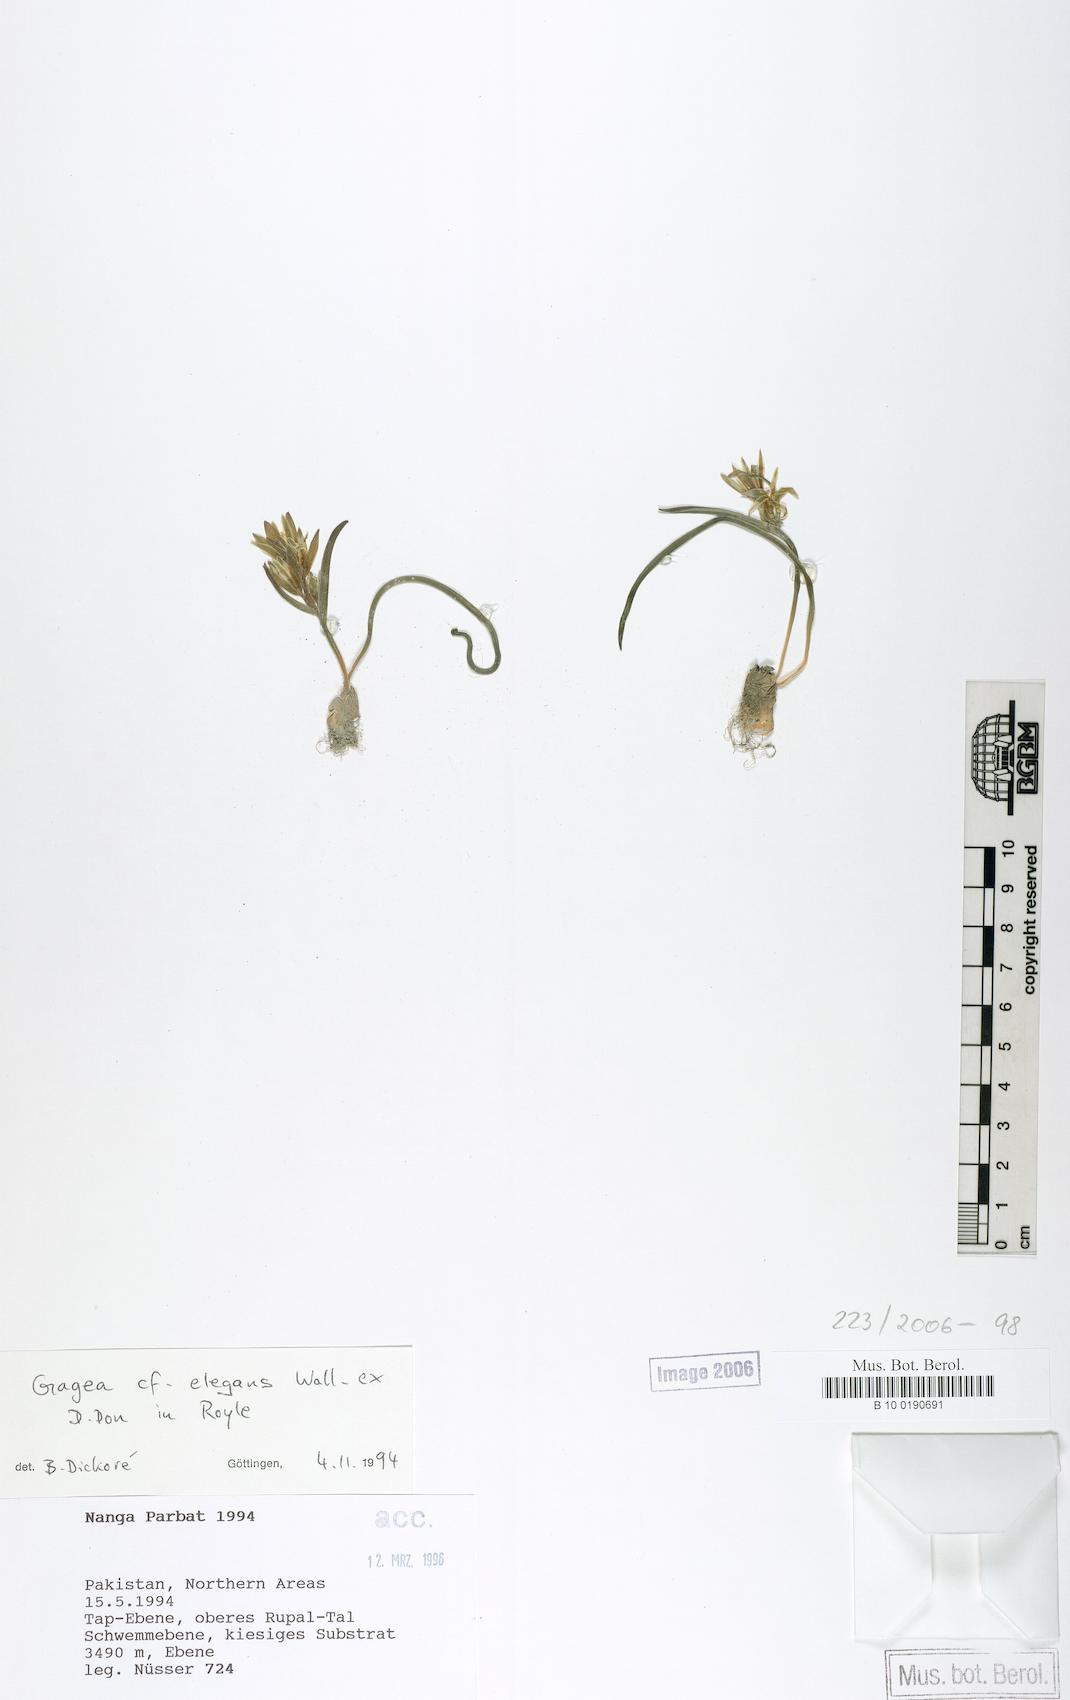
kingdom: Plantae
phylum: Tracheophyta
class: Liliopsida
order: Liliales
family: Liliaceae
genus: Gagea
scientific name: Gagea elegans
